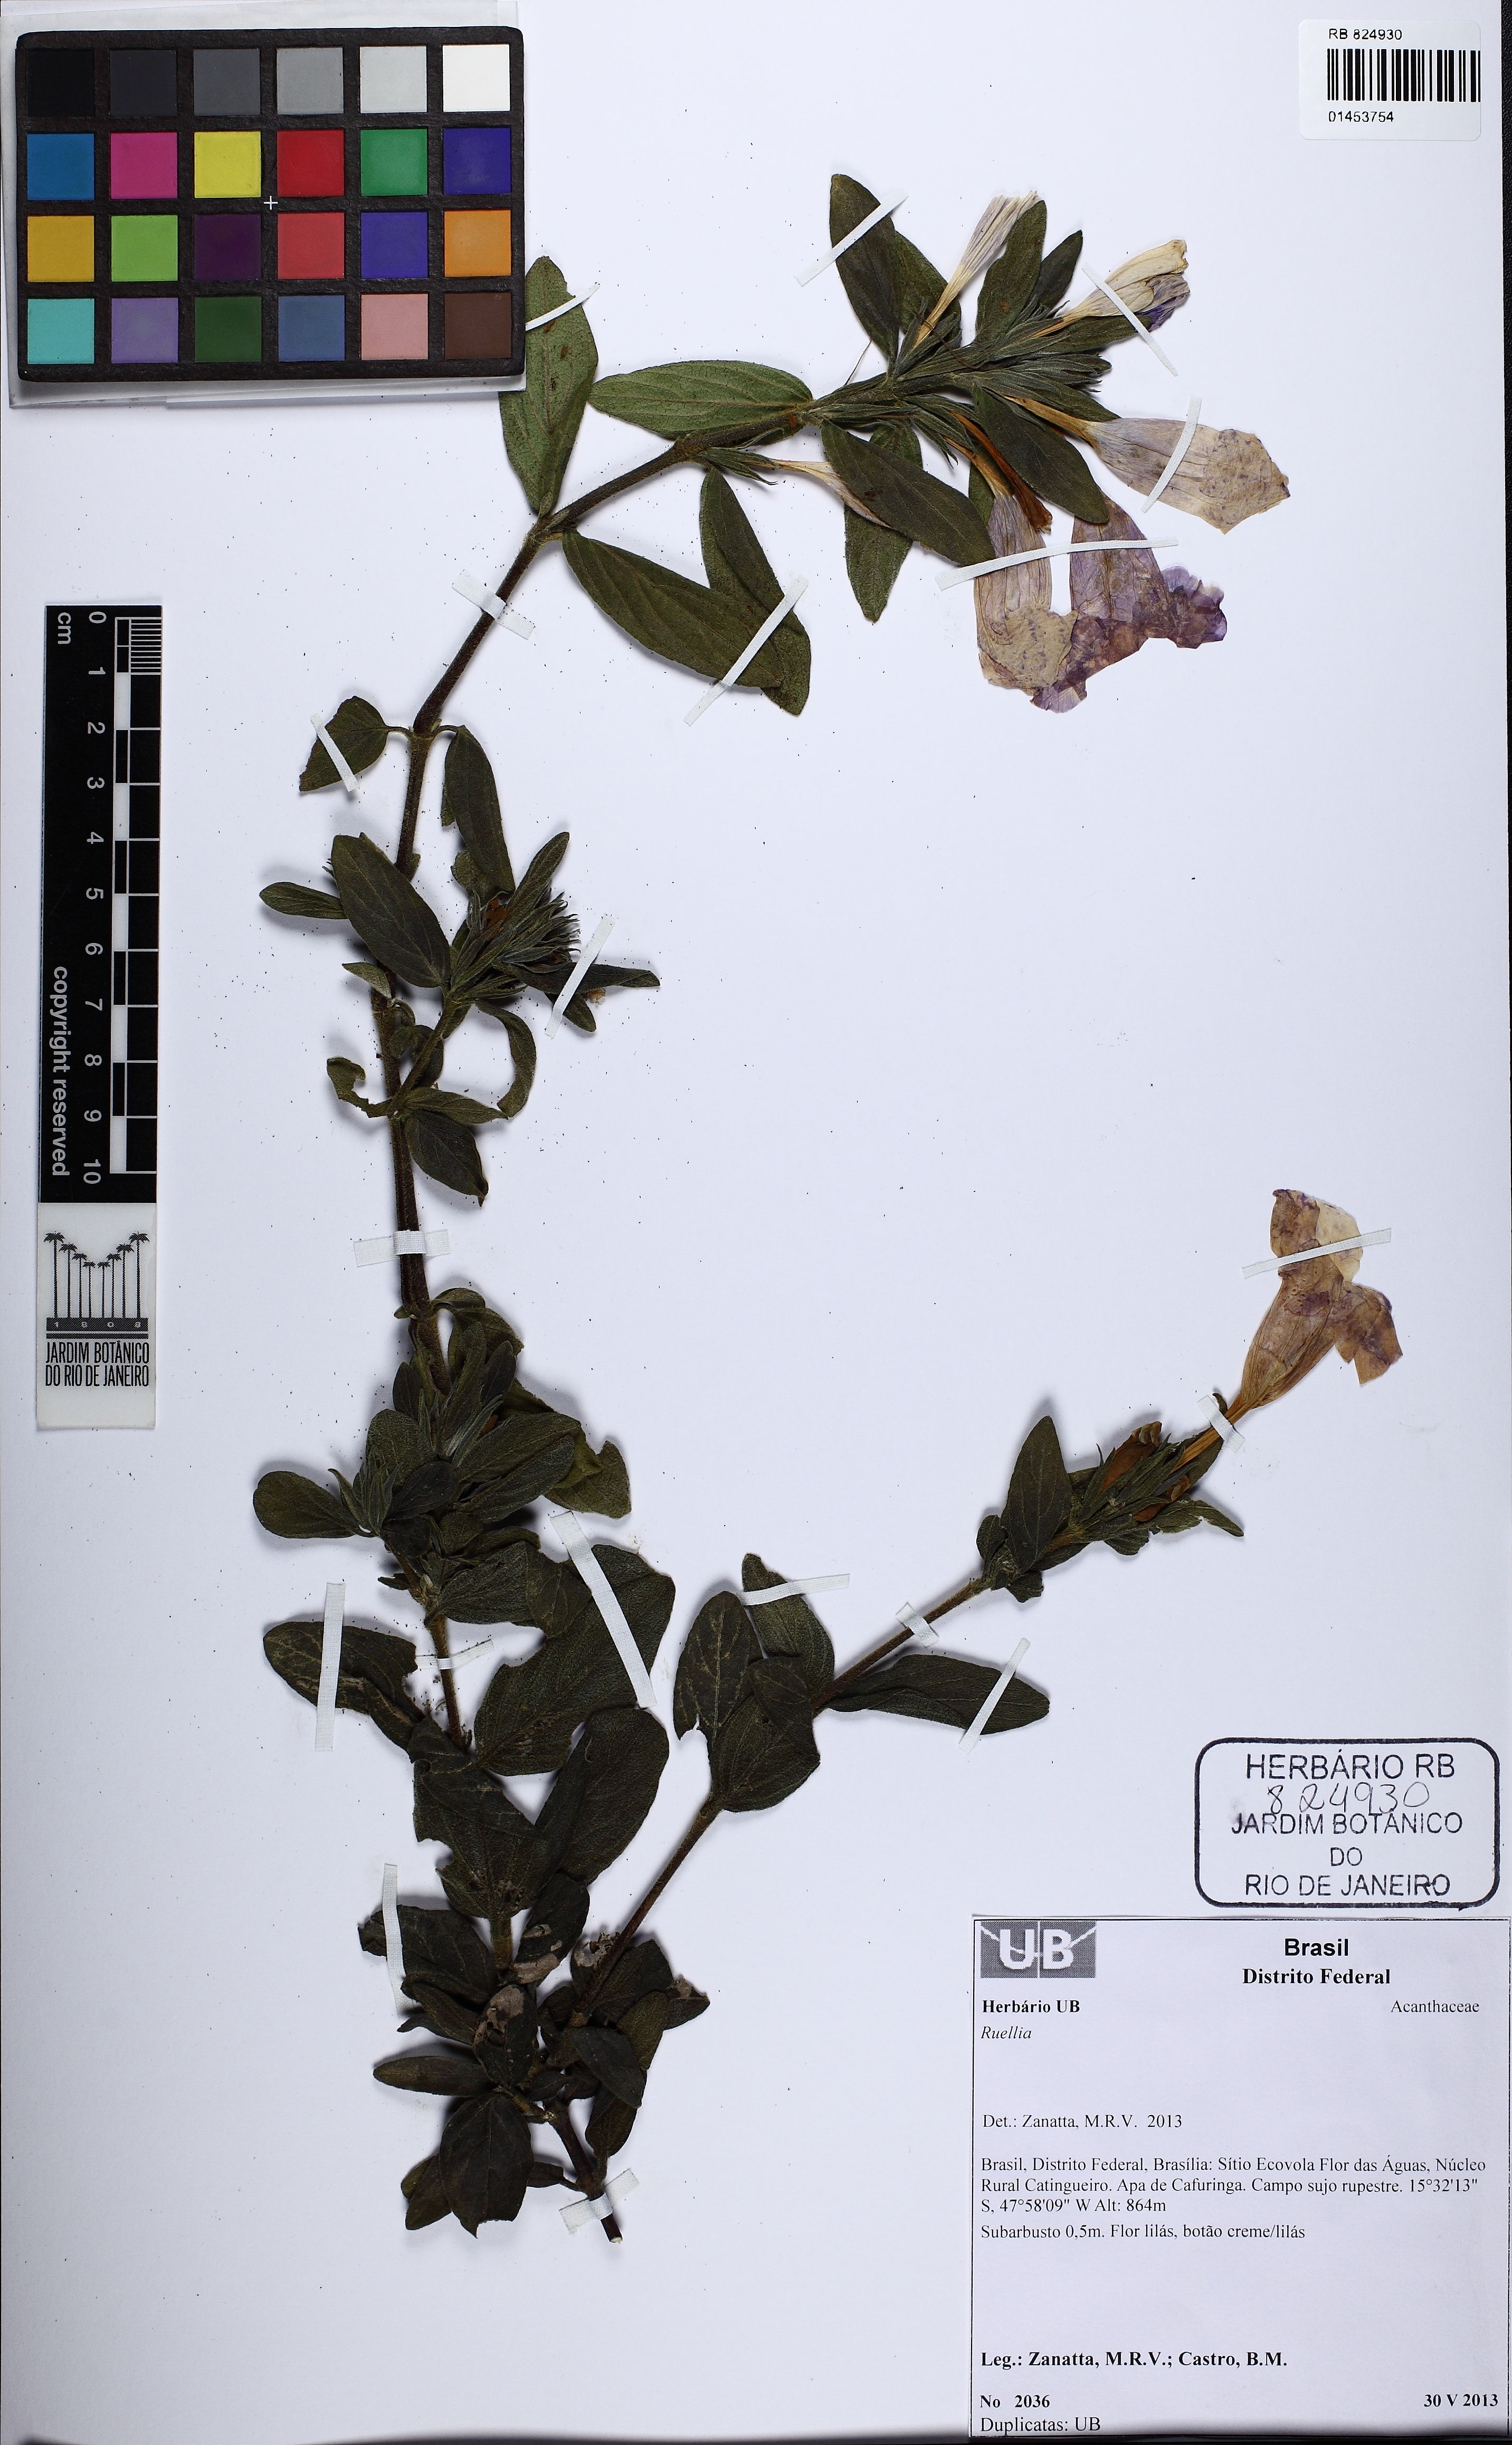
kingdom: Plantae
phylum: Tracheophyta
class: Magnoliopsida
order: Lamiales
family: Acanthaceae
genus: Ruellia
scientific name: Ruellia
